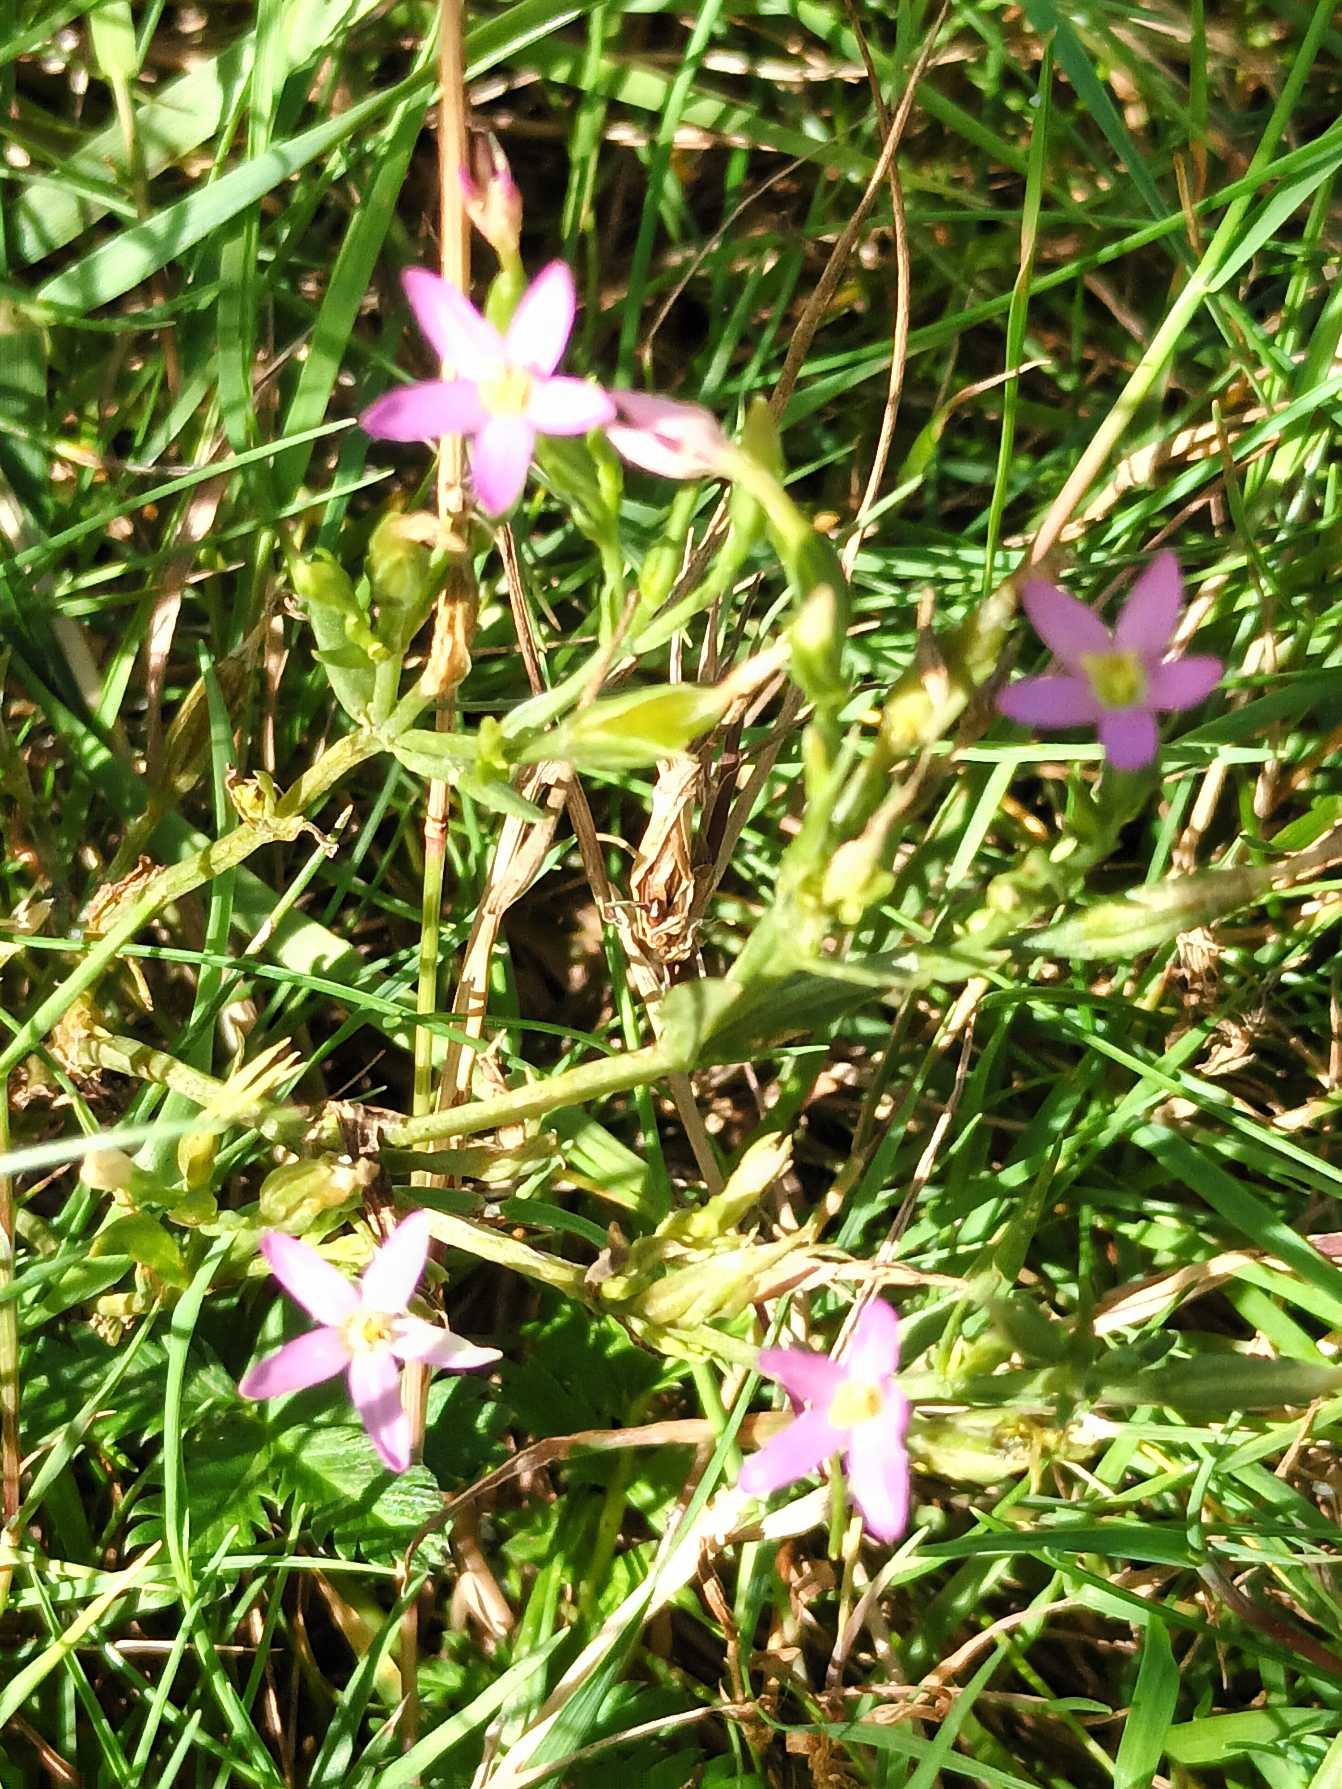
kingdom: Plantae
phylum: Tracheophyta
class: Magnoliopsida
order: Gentianales
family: Gentianaceae
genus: Centaurium
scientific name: Centaurium pulchellum
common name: Liden tusindgylden
